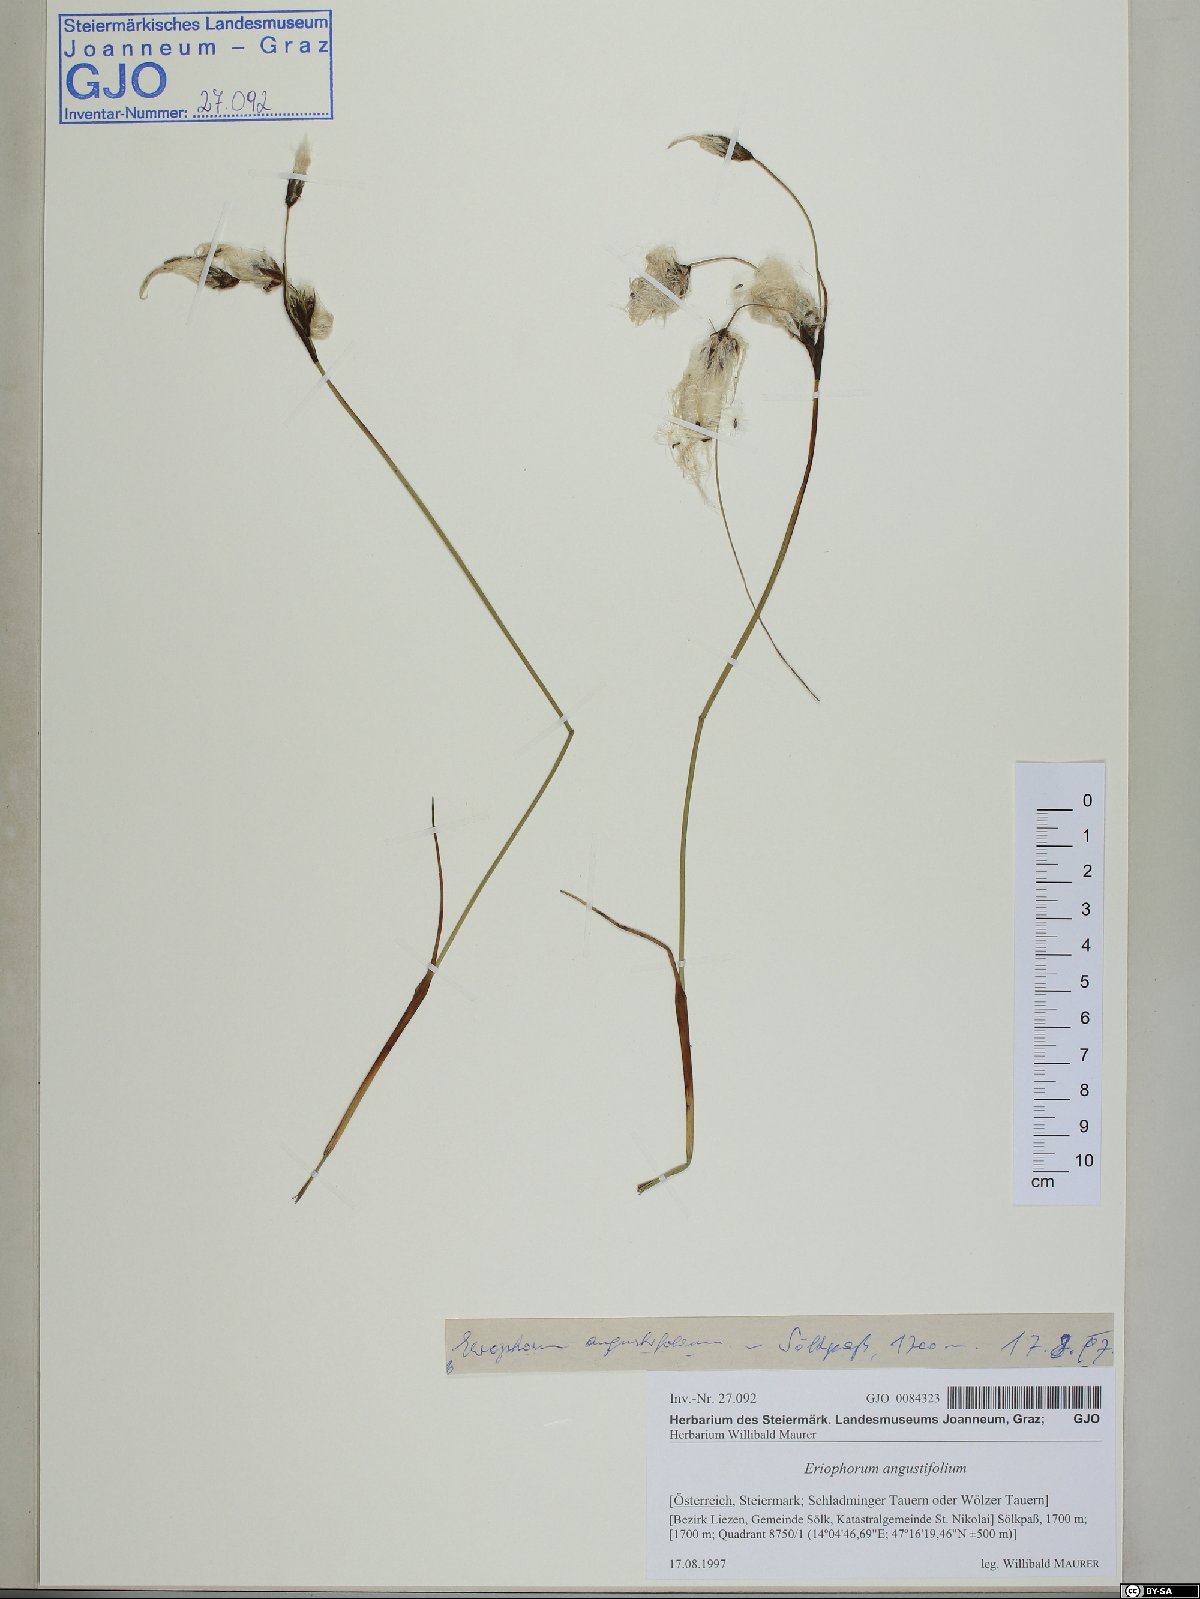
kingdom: Plantae
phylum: Tracheophyta
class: Liliopsida
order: Poales
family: Cyperaceae
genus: Eriophorum
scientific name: Eriophorum angustifolium
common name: Common cottongrass
